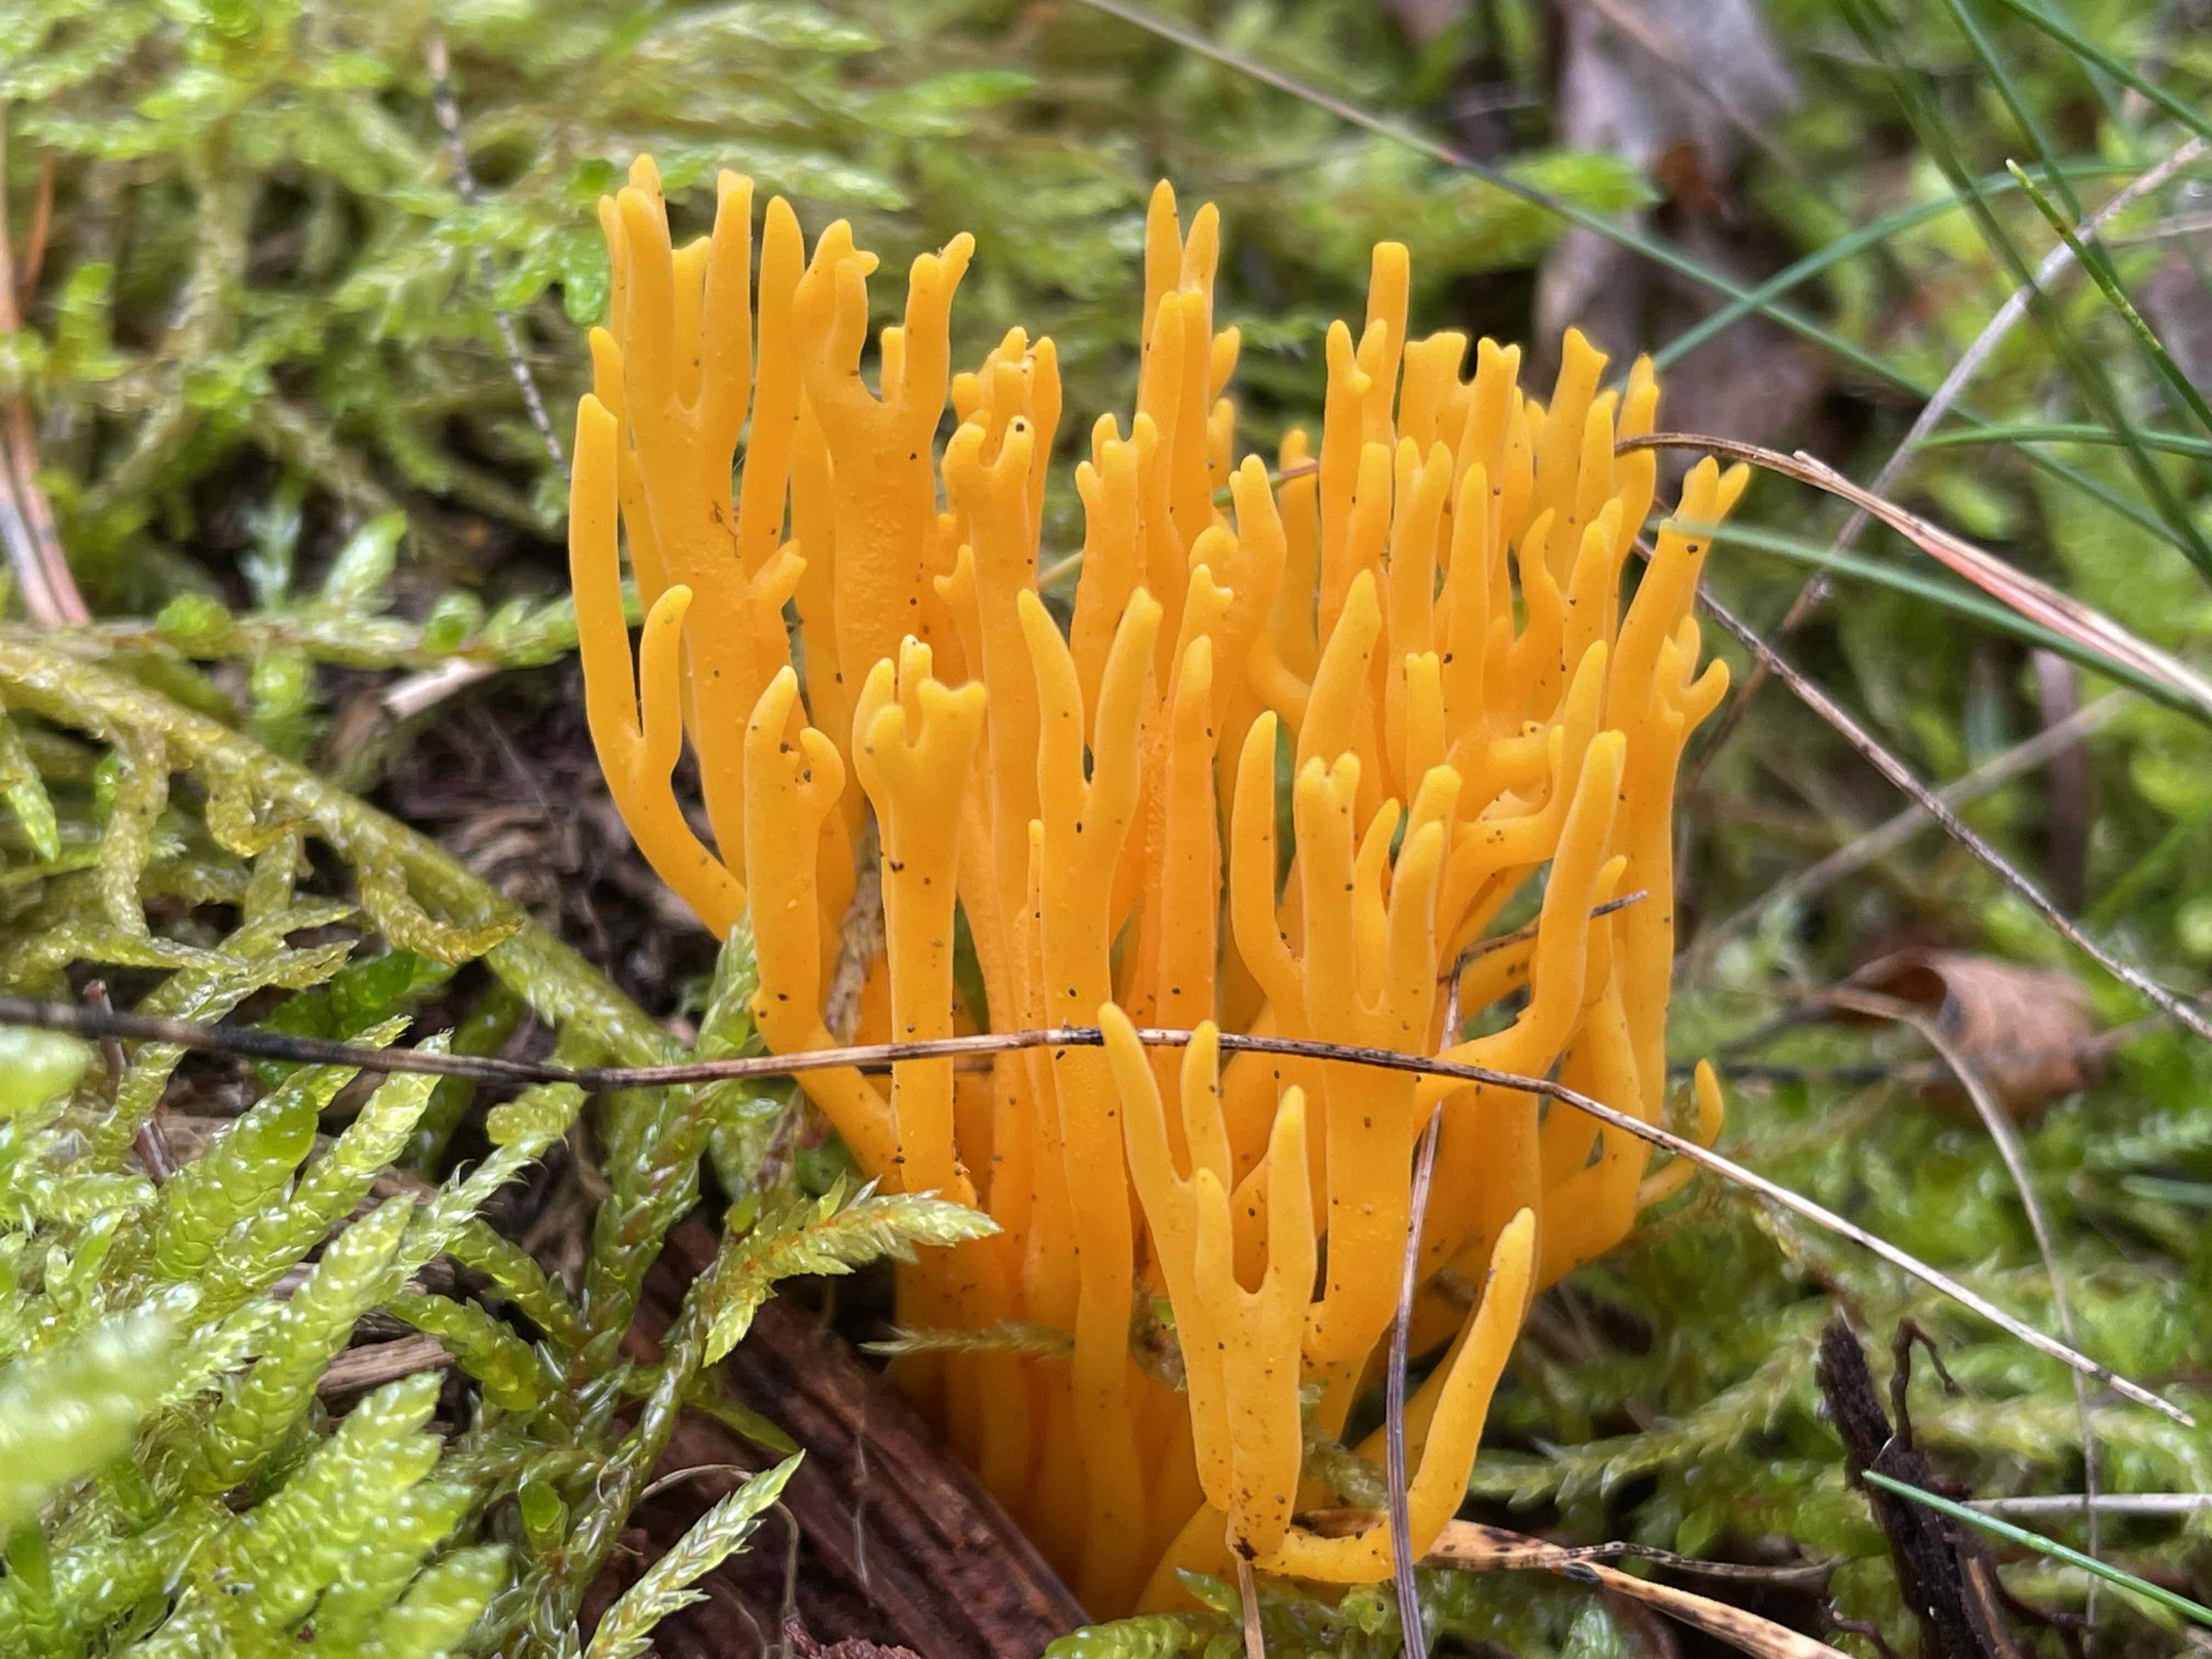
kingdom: Fungi
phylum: Basidiomycota
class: Dacrymycetes
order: Dacrymycetales
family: Dacrymycetaceae
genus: Calocera
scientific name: Calocera viscosa
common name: almindelig guldgaffel
